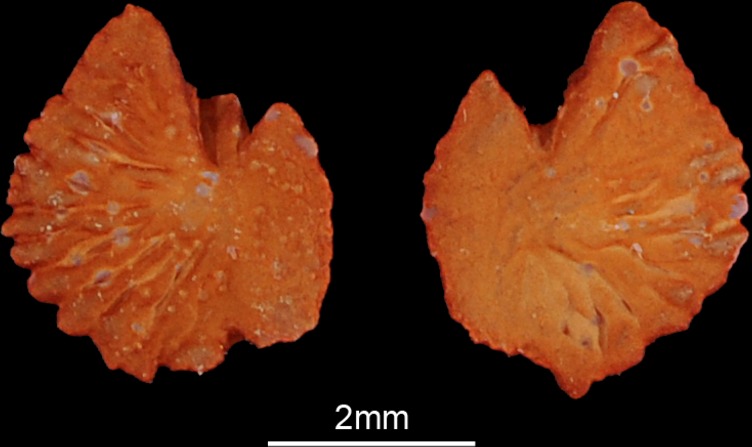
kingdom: Animalia
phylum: Chordata
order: Cypriniformes
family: Cyprinidae
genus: Tinca
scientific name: Tinca tinca
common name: Tench
